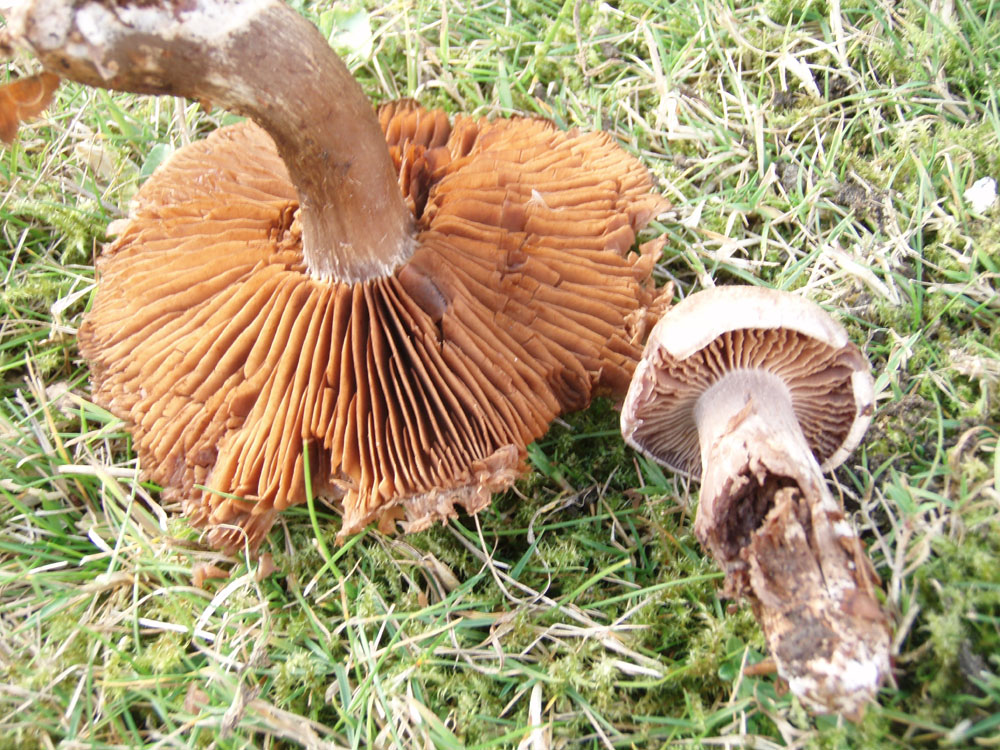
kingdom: Fungi
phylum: Basidiomycota
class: Agaricomycetes
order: Agaricales
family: Cortinariaceae
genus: Cortinarius
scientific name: Cortinarius
